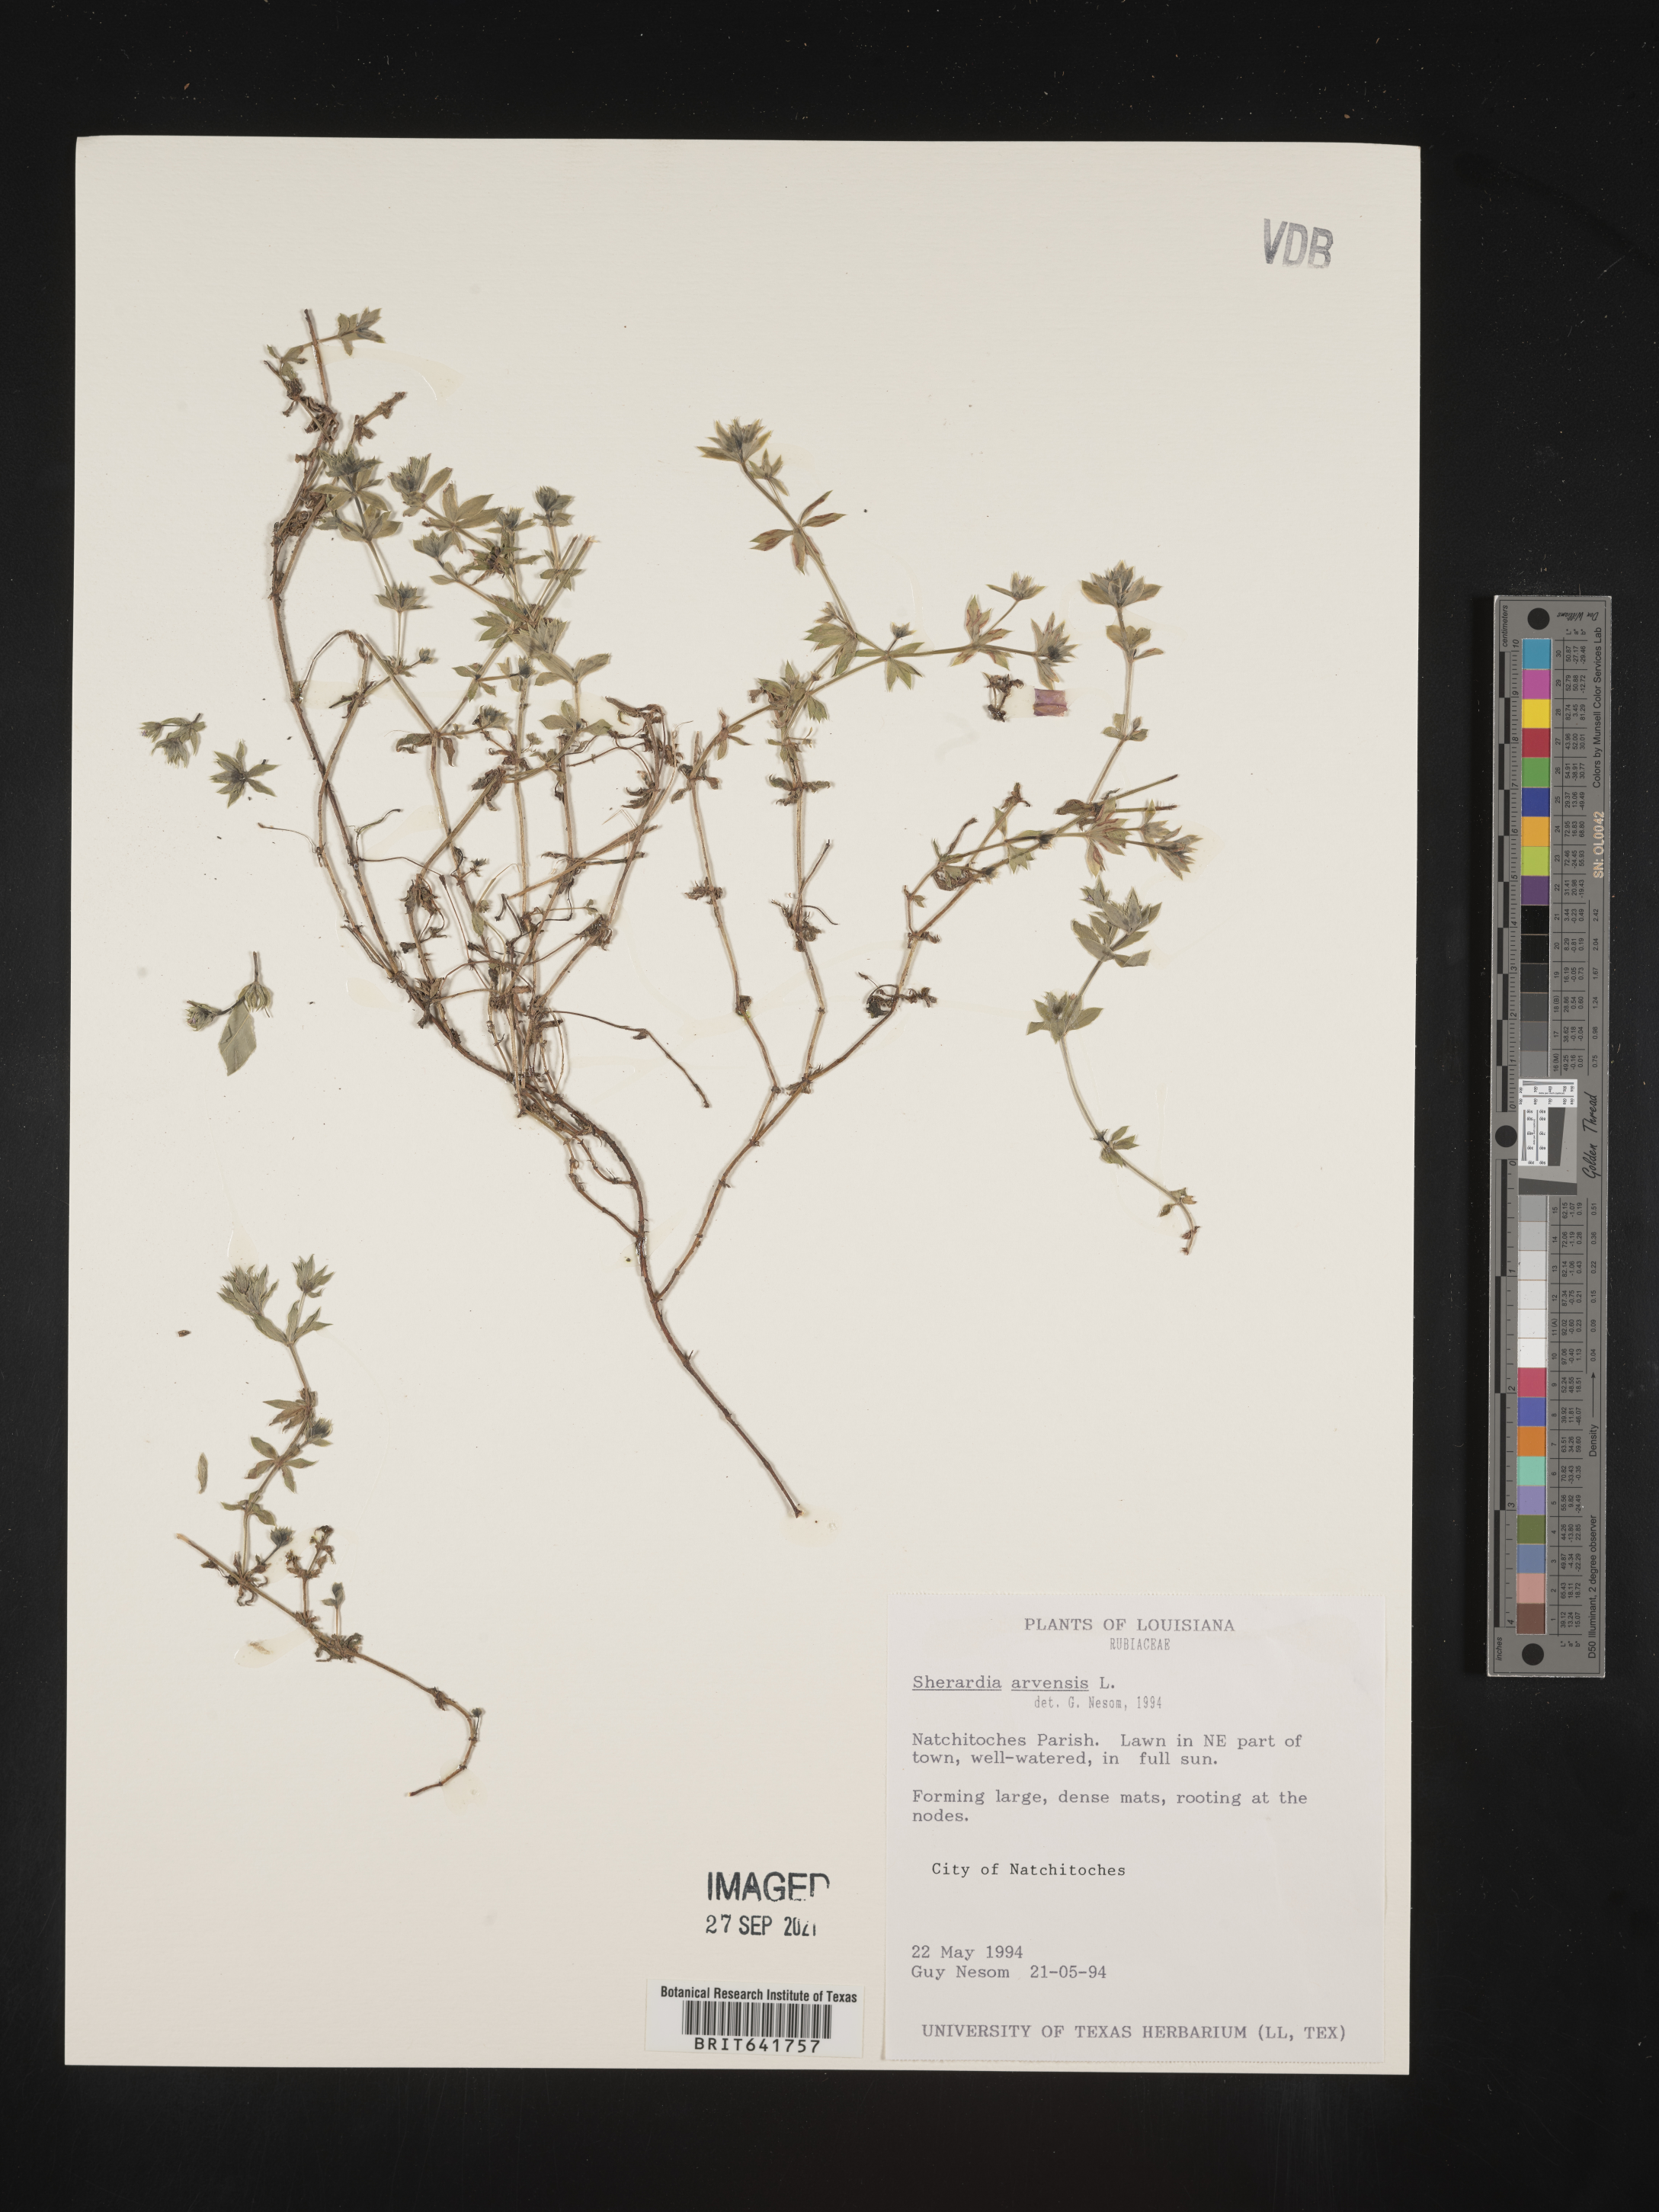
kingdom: Plantae
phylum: Tracheophyta
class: Magnoliopsida
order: Gentianales
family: Rubiaceae
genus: Sherardia
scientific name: Sherardia arvensis
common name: Field madder
